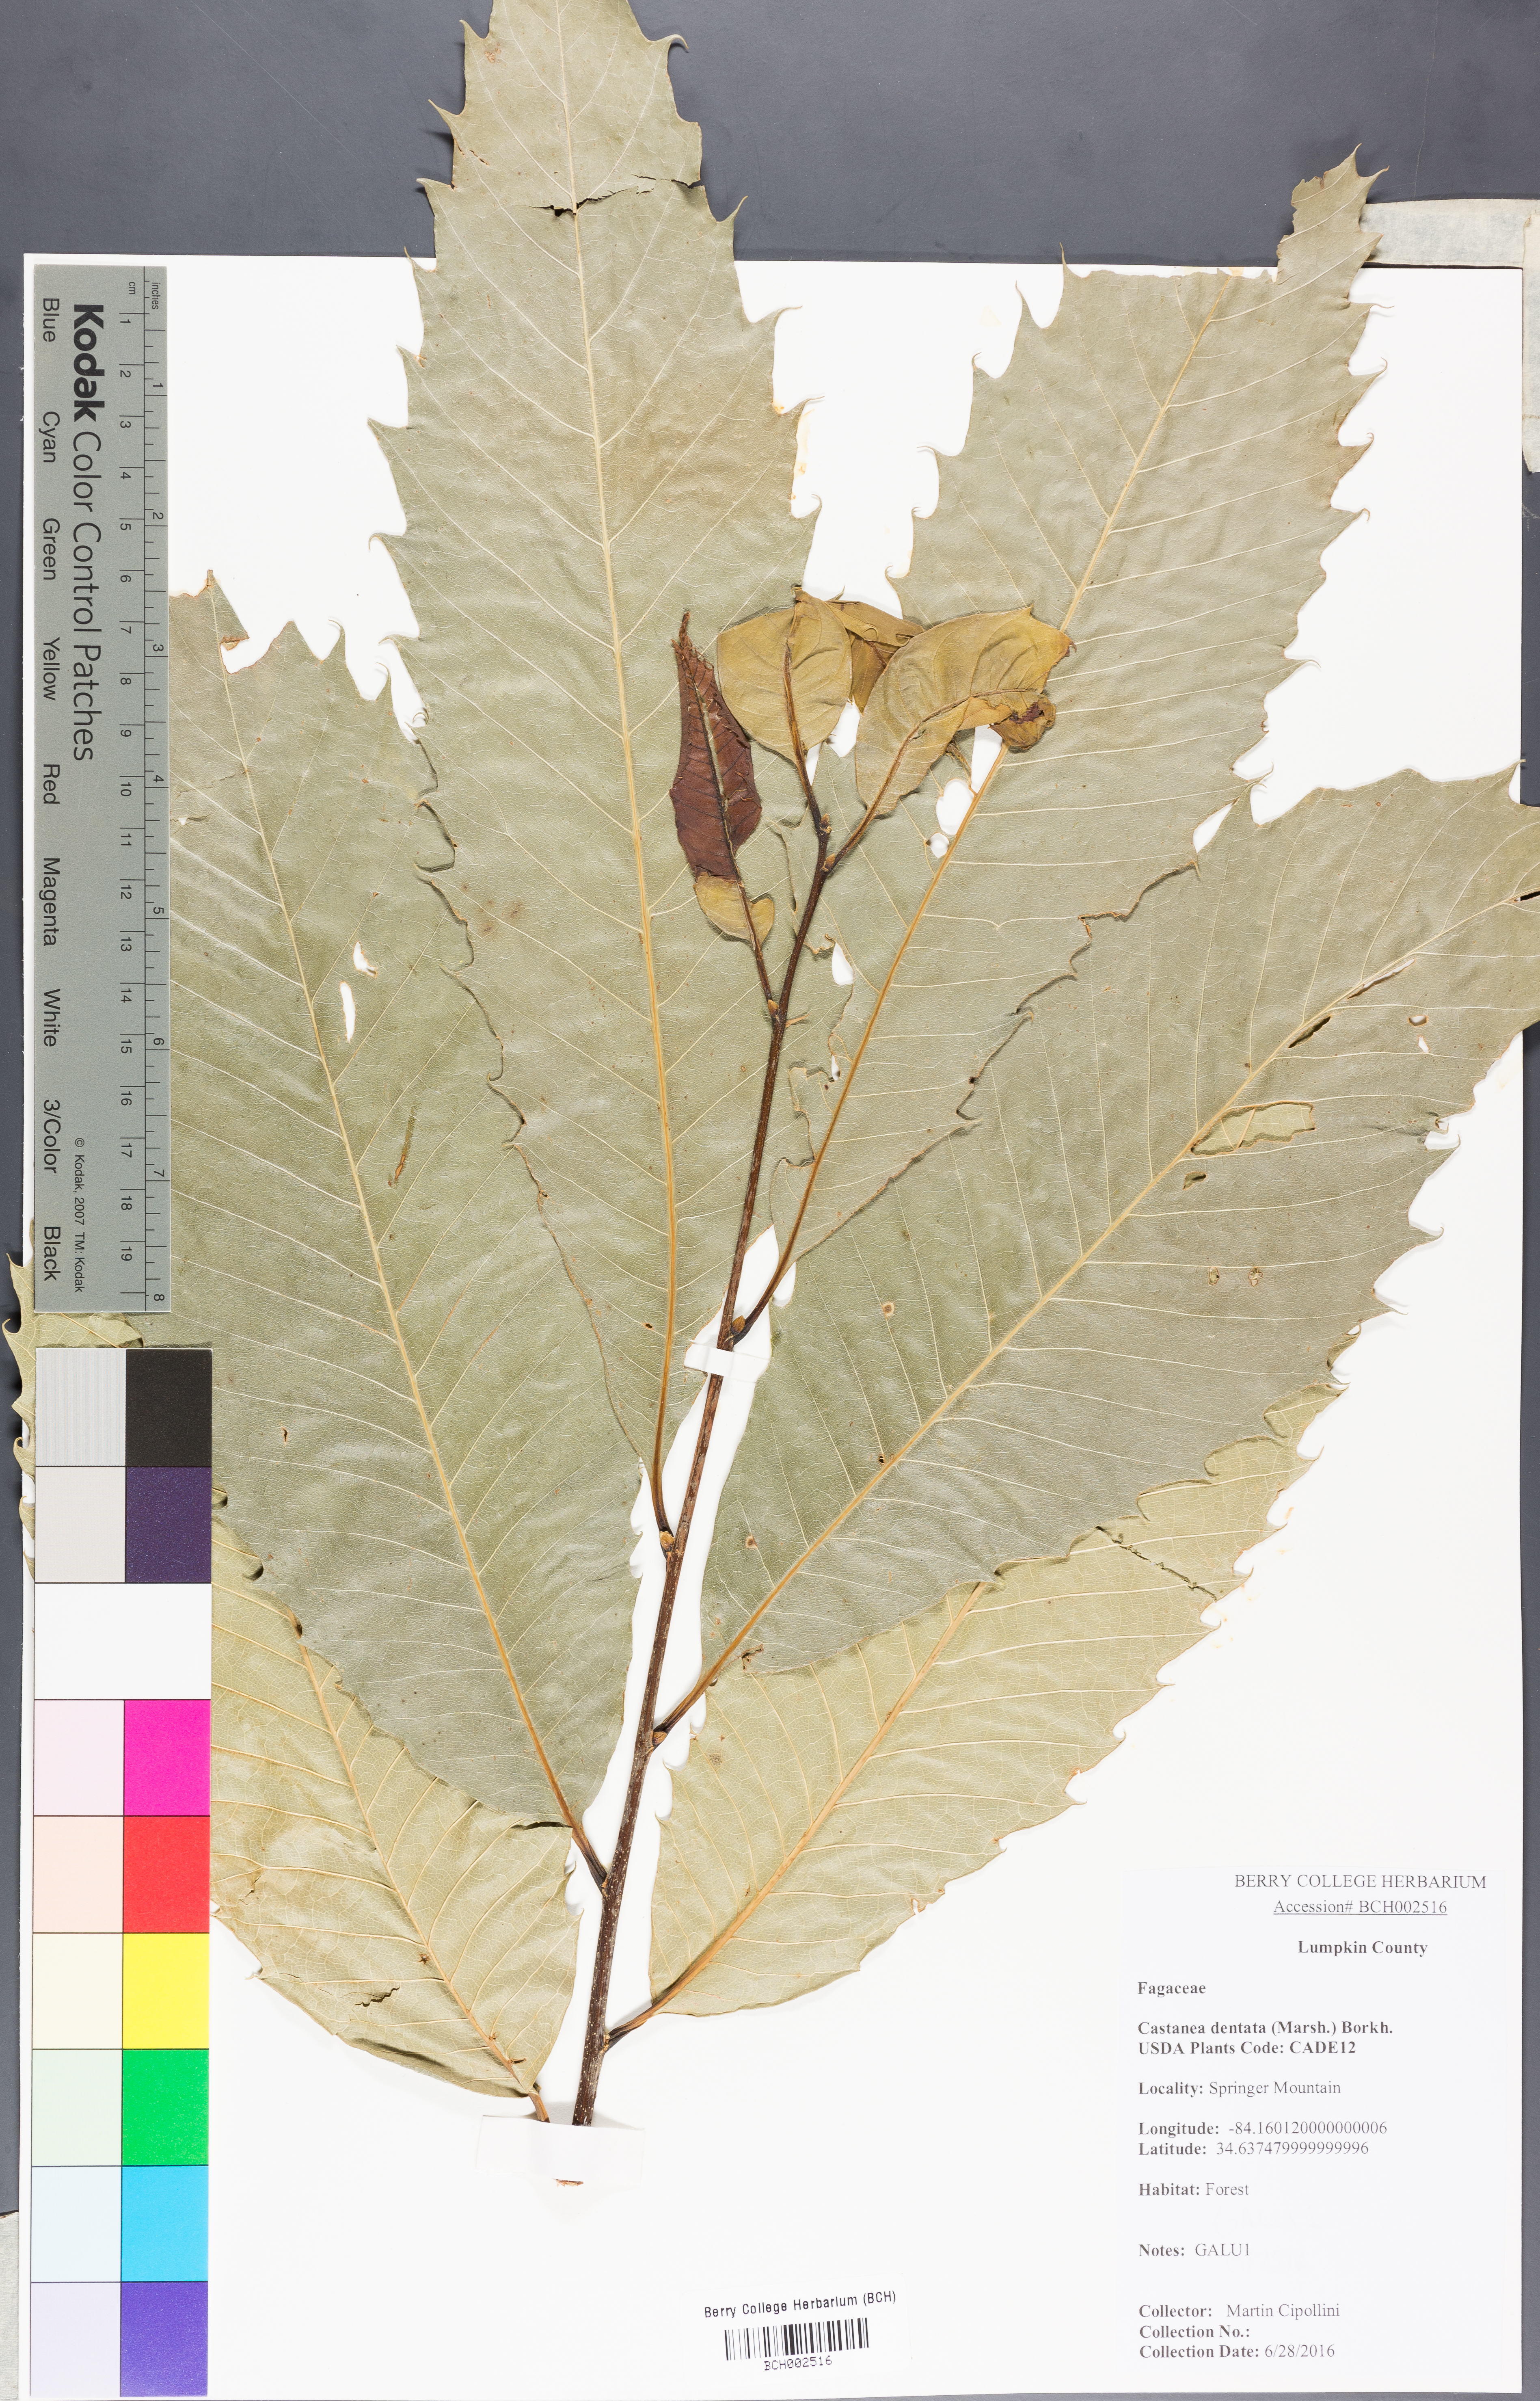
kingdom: Plantae
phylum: Tracheophyta
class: Magnoliopsida
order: Fagales
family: Fagaceae
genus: Castanea
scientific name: Castanea dentata
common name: American chestnut
